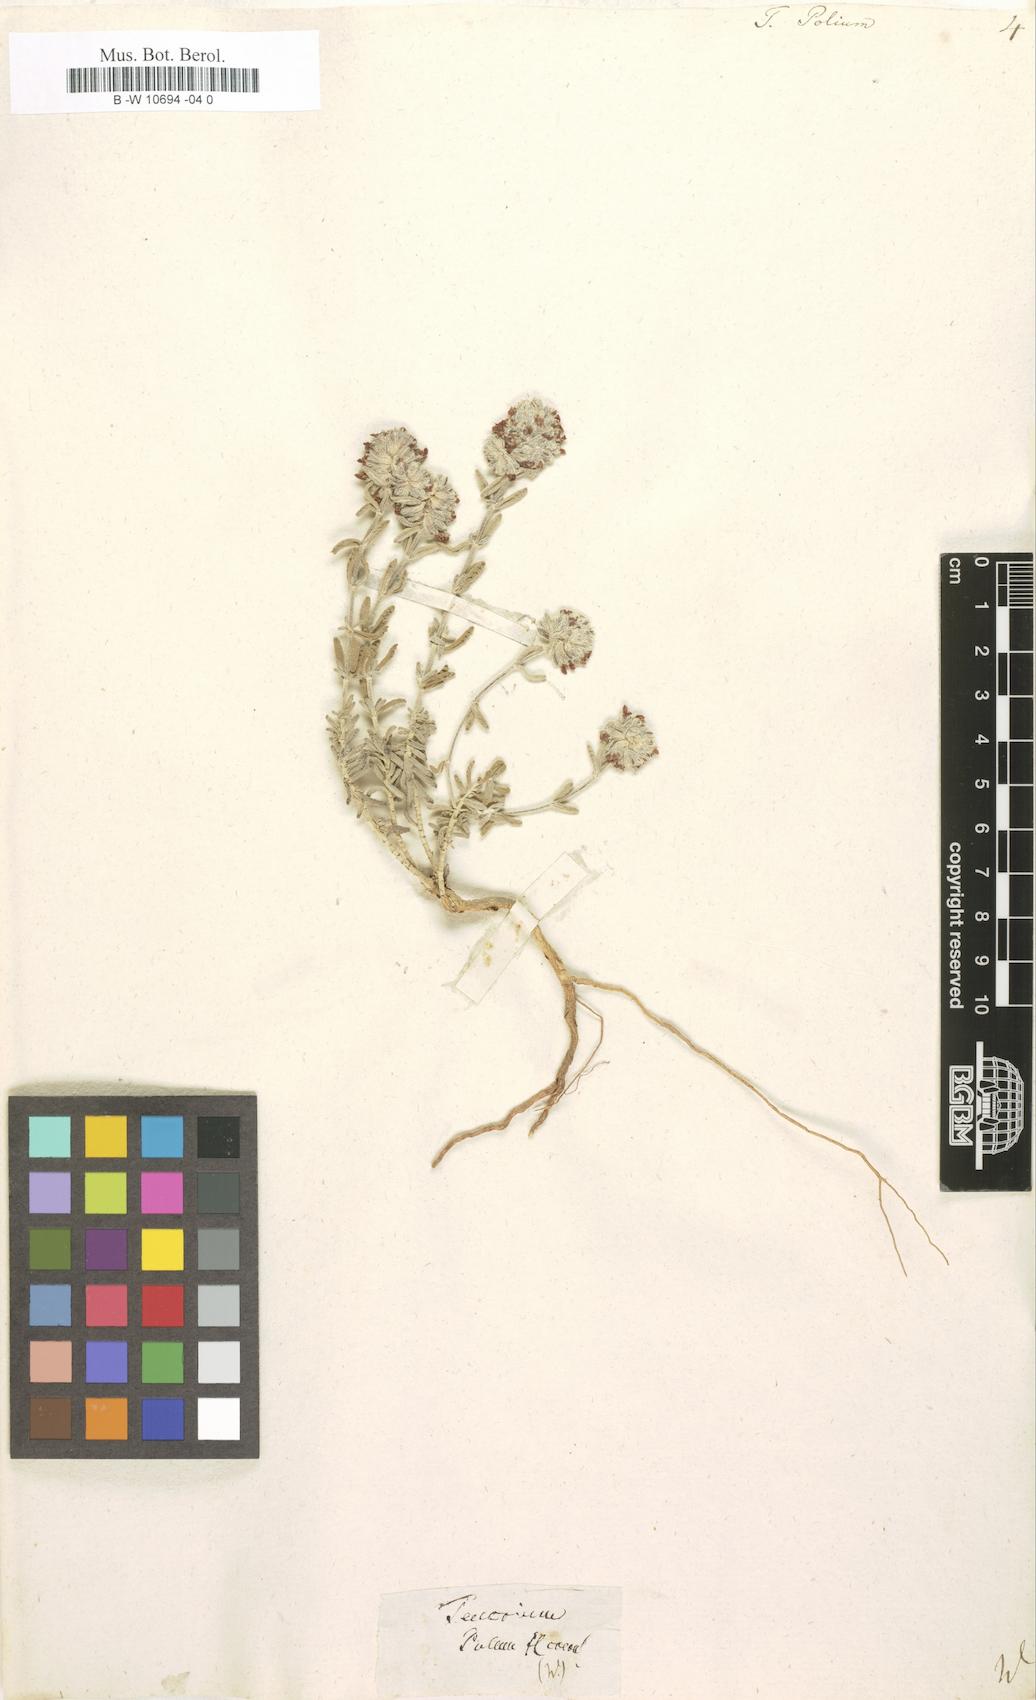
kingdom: Plantae
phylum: Tracheophyta
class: Magnoliopsida
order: Lamiales
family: Lamiaceae
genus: Teucrium
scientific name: Teucrium polium
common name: Poley
